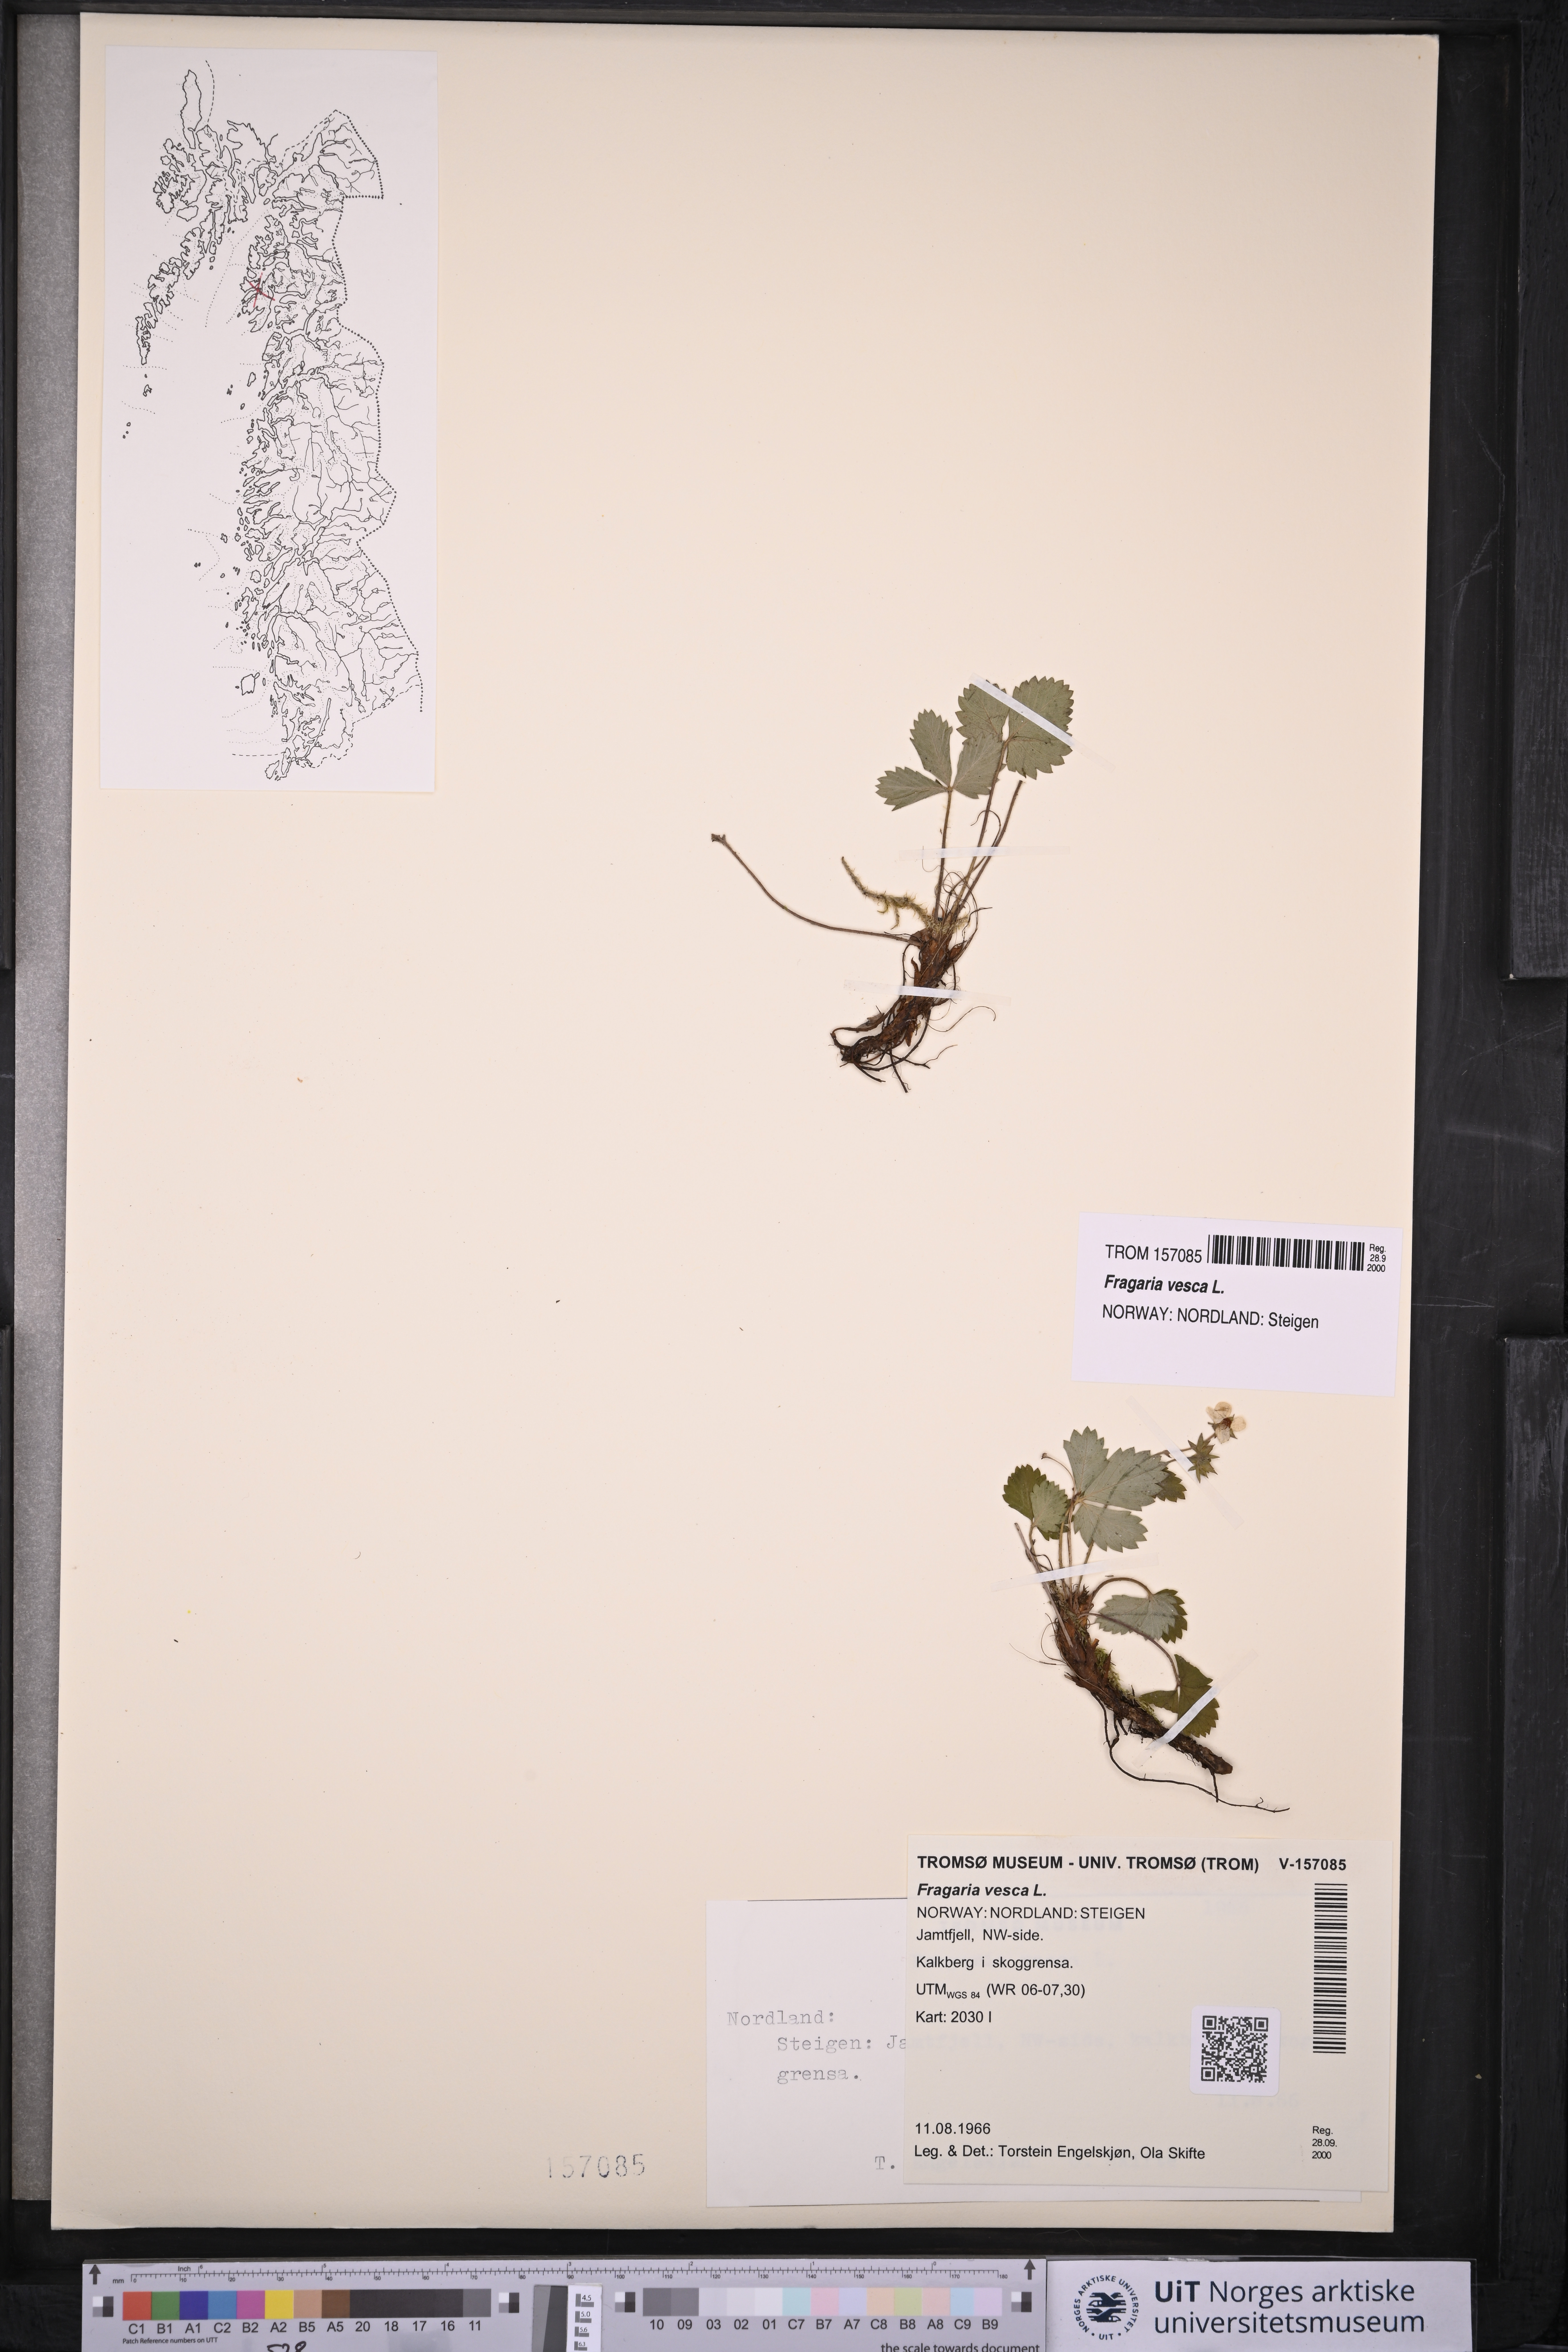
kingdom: Plantae
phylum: Tracheophyta
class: Magnoliopsida
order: Rosales
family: Rosaceae
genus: Fragaria
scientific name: Fragaria vesca
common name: Wild strawberry
